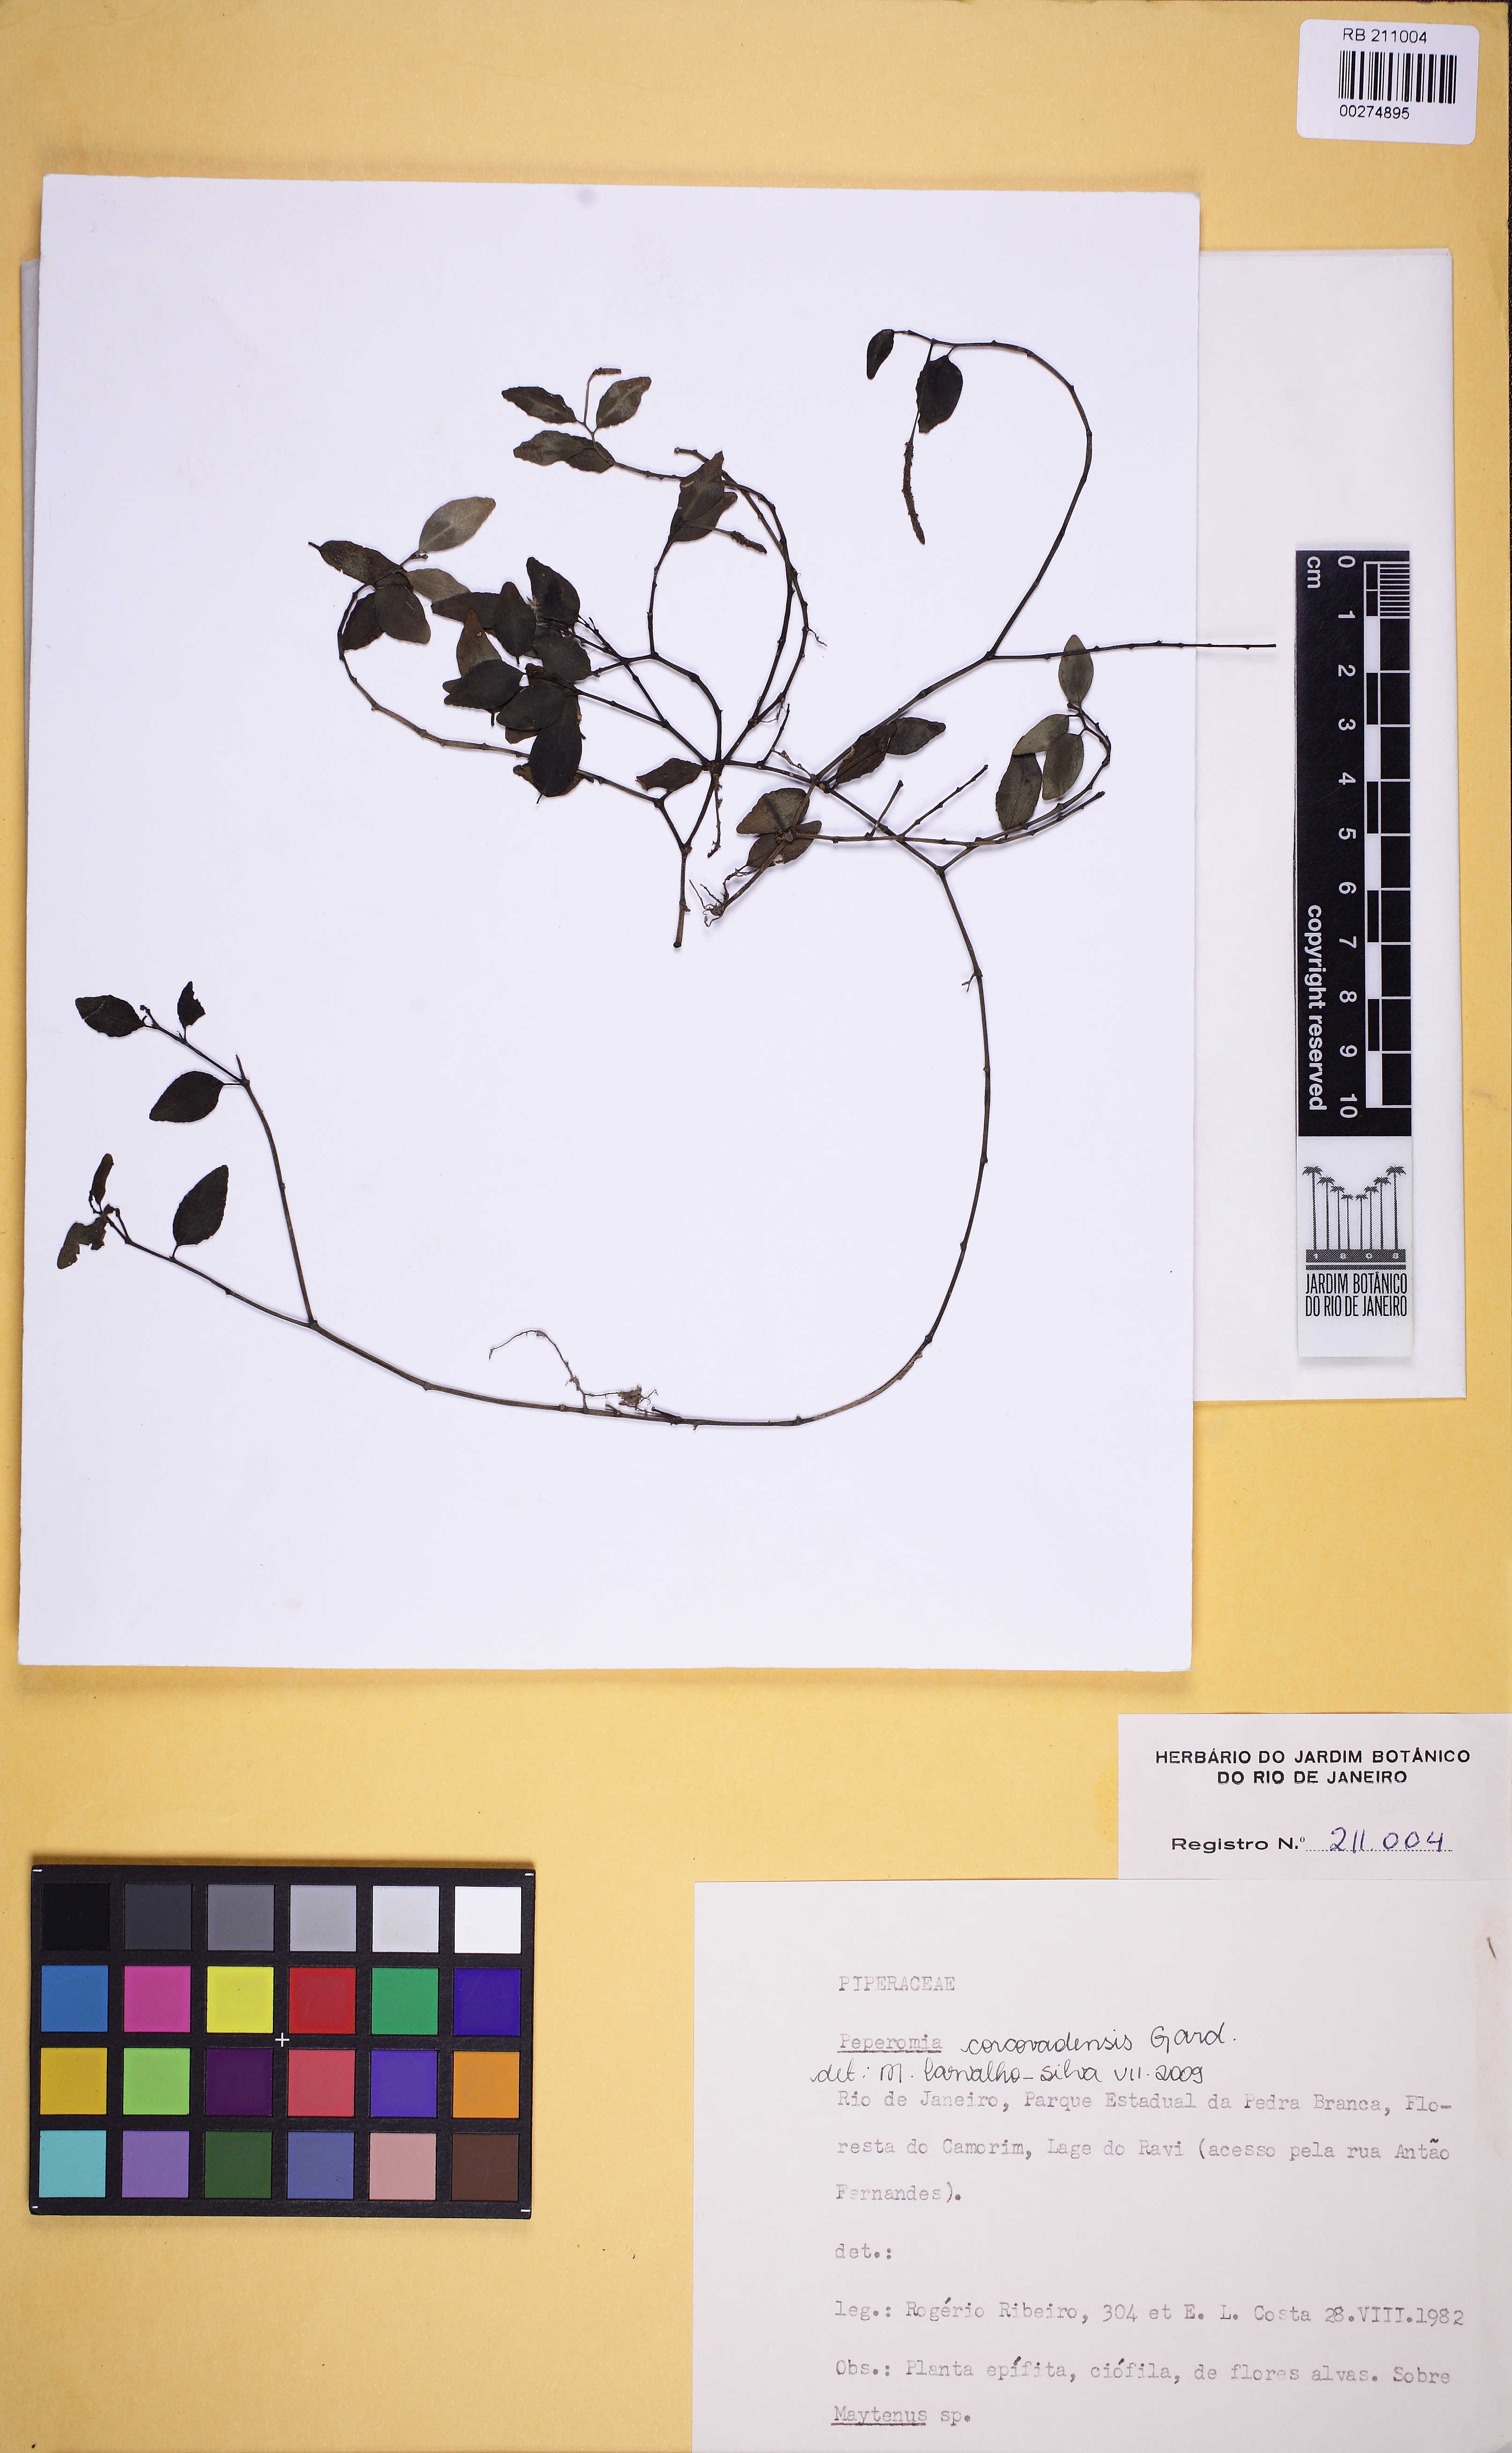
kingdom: Plantae
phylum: Tracheophyta
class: Magnoliopsida
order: Piperales
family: Piperaceae
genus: Peperomia
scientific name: Peperomia corcovadensis
